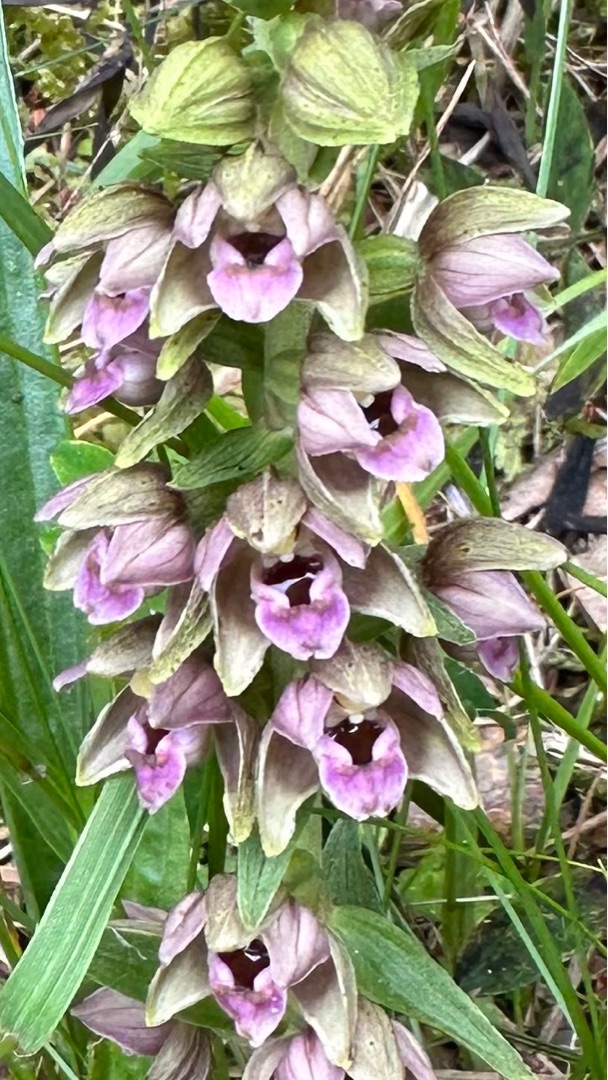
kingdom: Plantae
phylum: Tracheophyta
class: Liliopsida
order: Asparagales
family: Orchidaceae
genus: Epipactis
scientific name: Epipactis helleborine
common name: Hollandsk hullæbe
